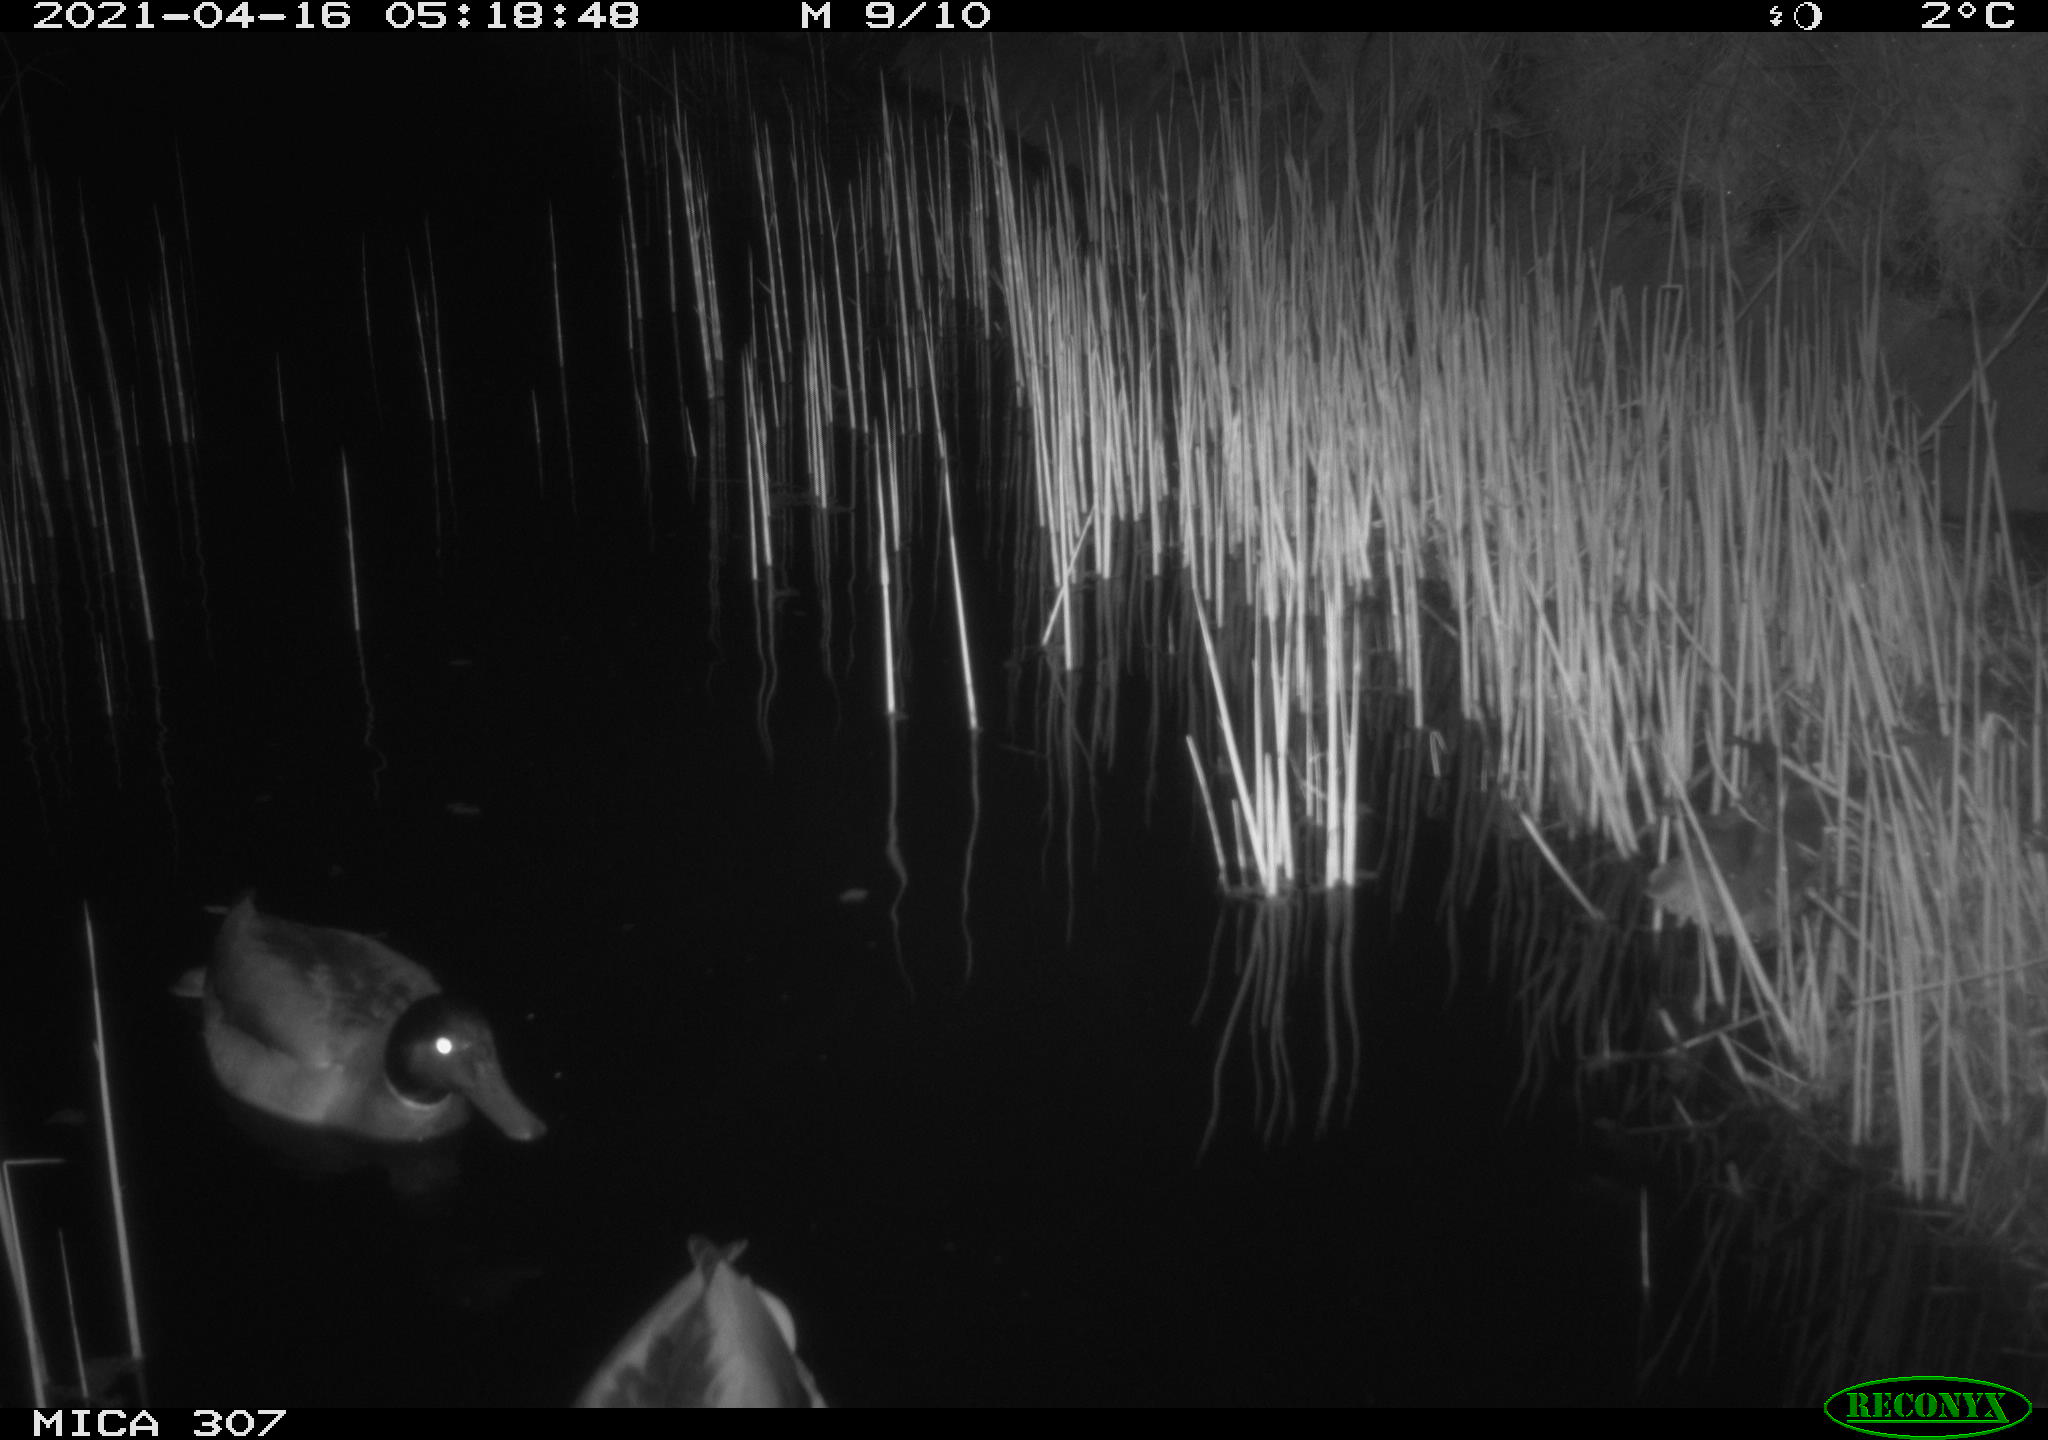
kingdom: Animalia
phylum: Chordata
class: Aves
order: Gruiformes
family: Rallidae
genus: Gallinula
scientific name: Gallinula chloropus
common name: Common moorhen
